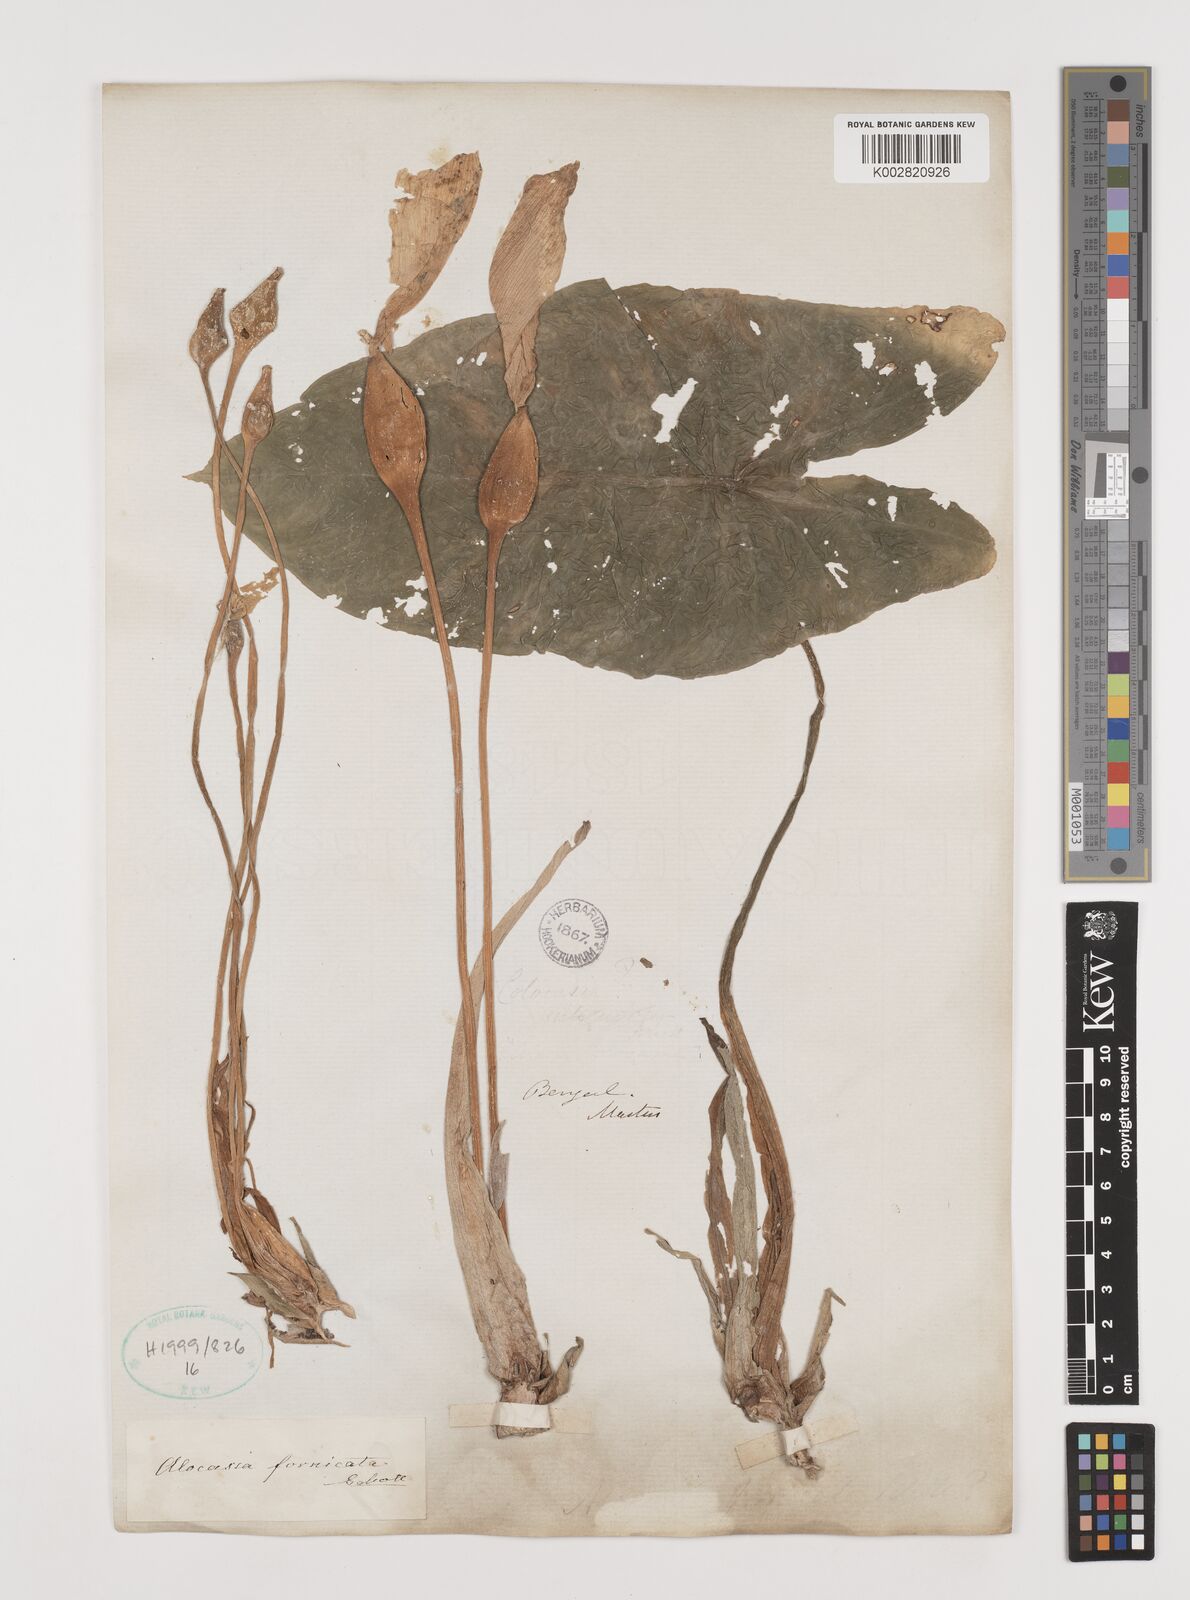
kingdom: Plantae
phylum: Tracheophyta
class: Liliopsida
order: Alismatales
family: Araceae
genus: Alocasia
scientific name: Alocasia fornicata
